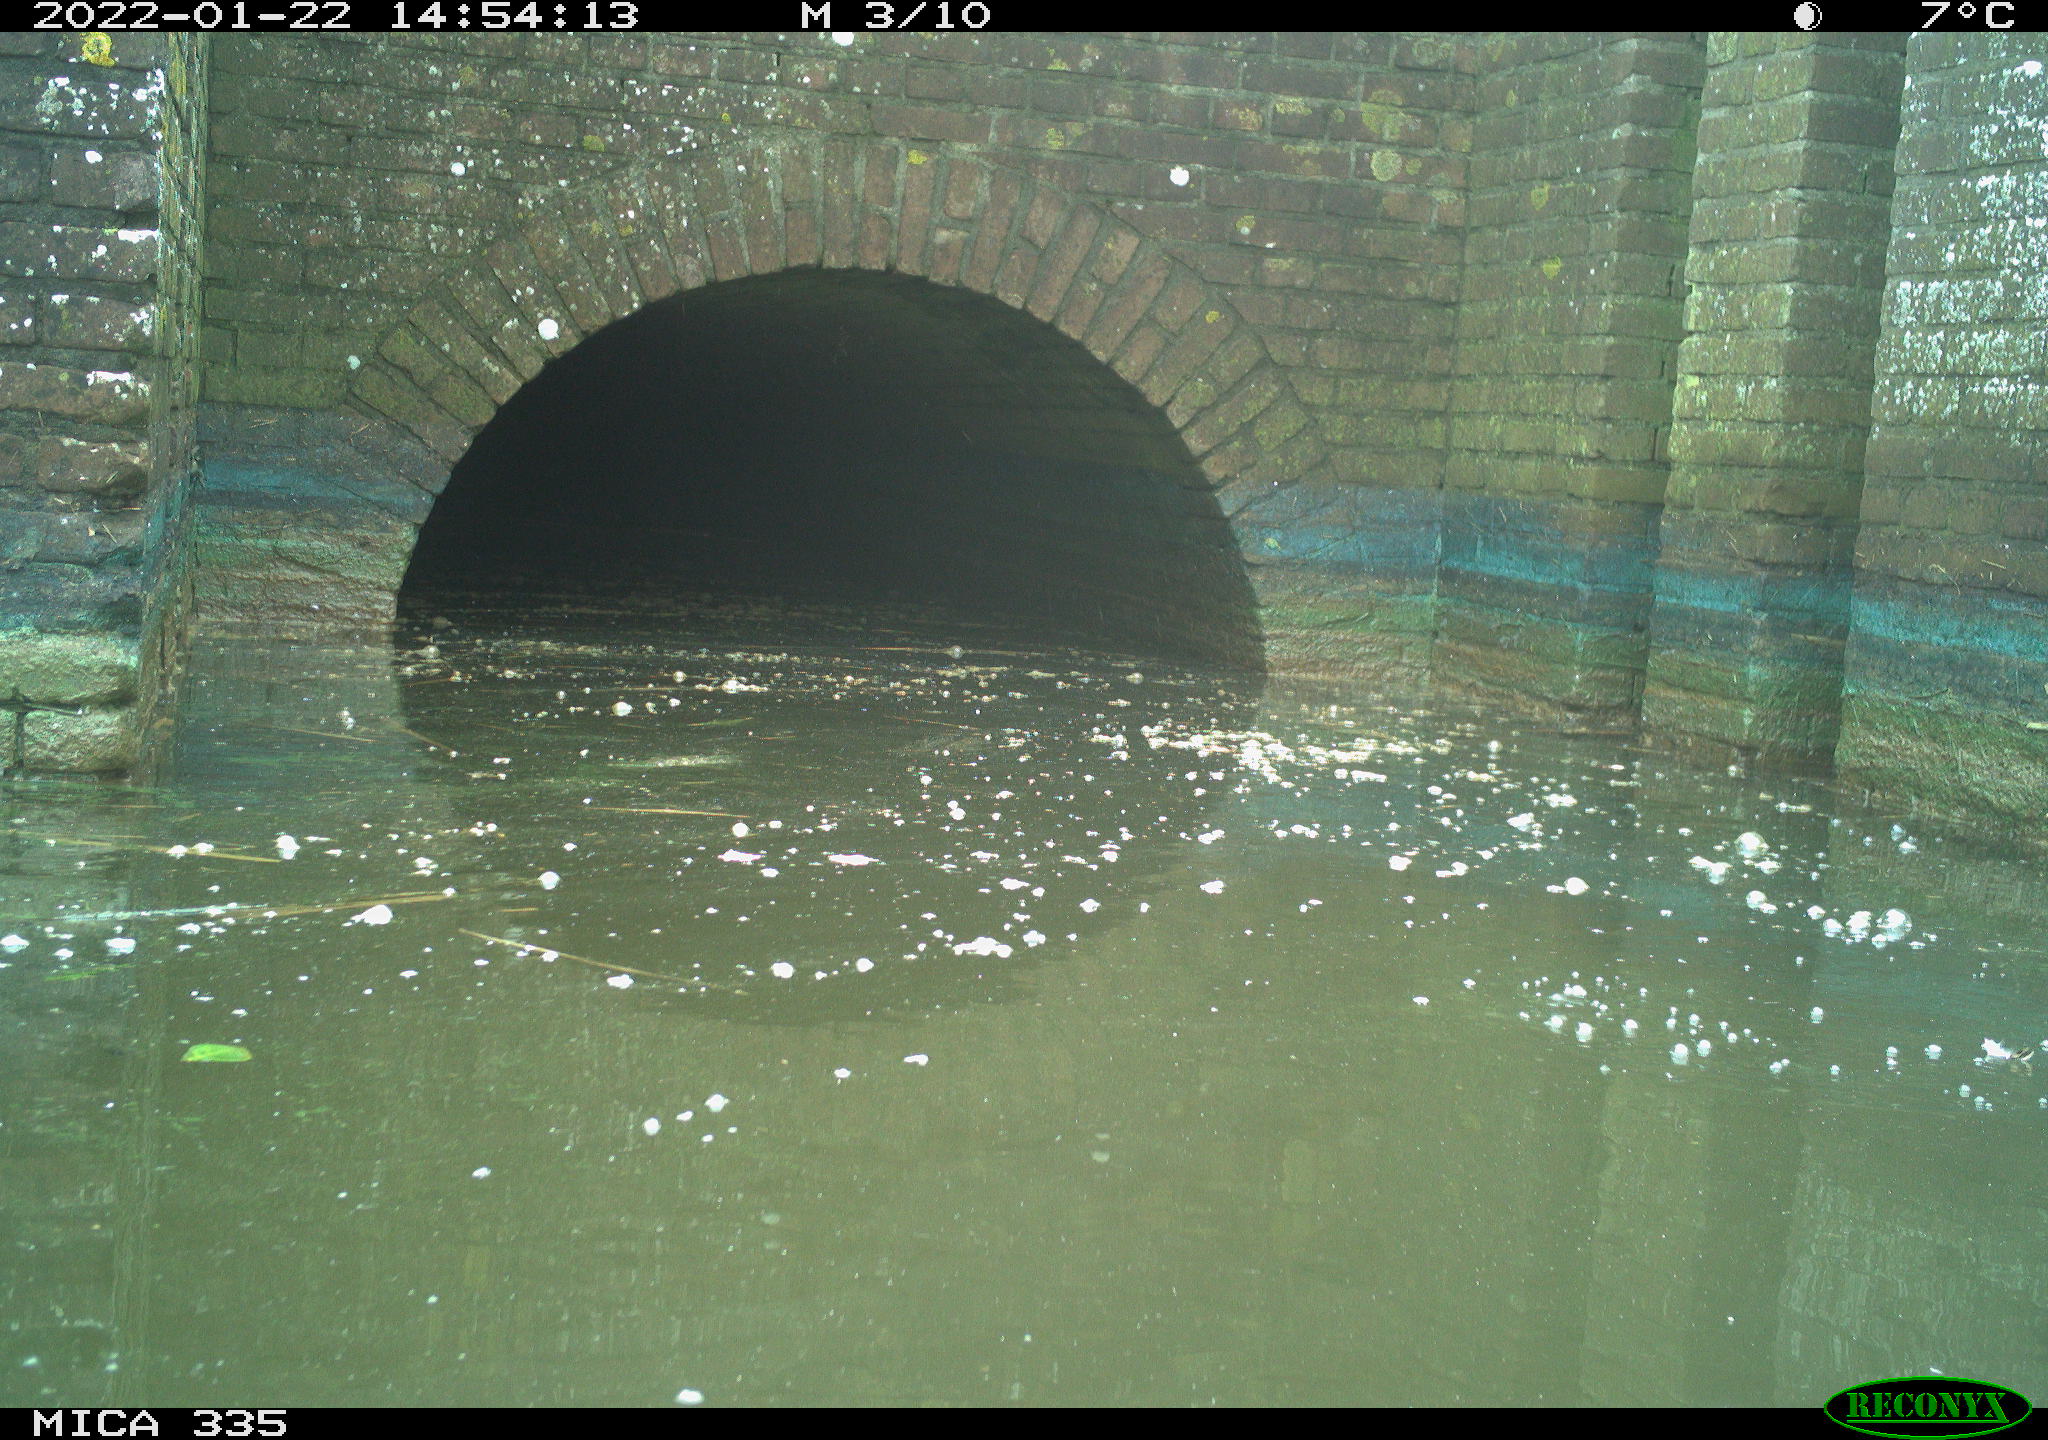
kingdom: Animalia
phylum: Chordata
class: Aves
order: Gruiformes
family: Rallidae
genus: Gallinula
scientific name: Gallinula chloropus
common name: Common moorhen
